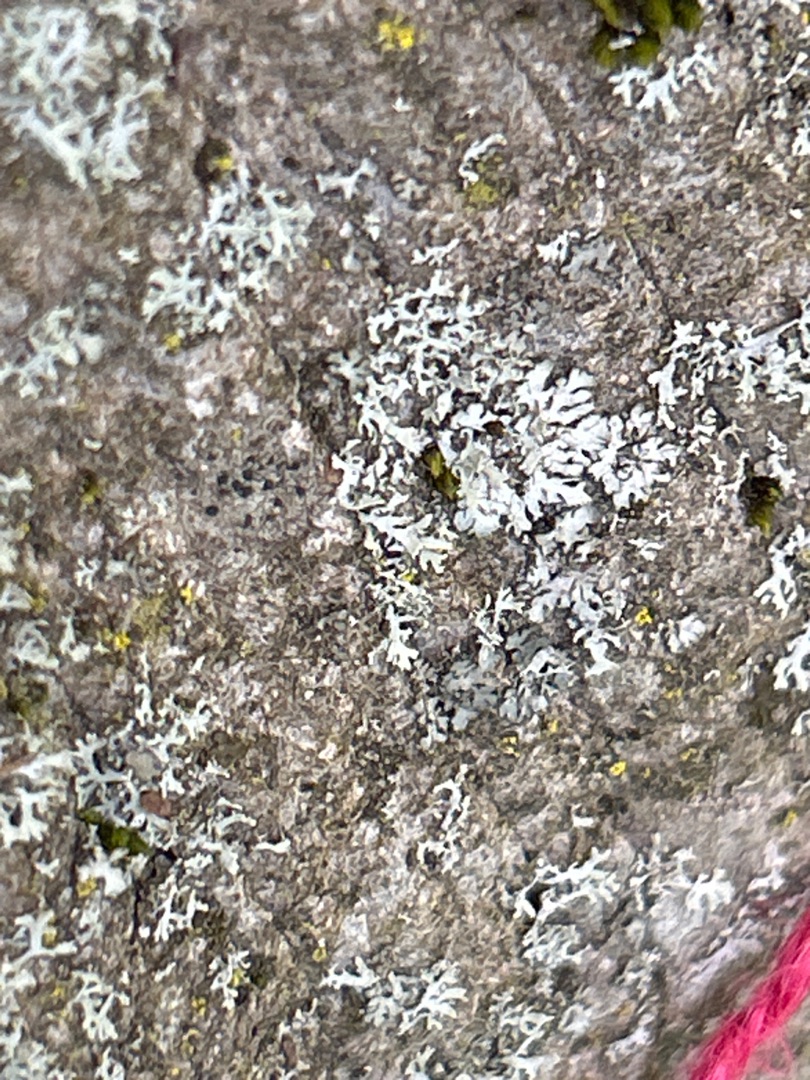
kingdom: Fungi
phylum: Ascomycota
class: Lecanoromycetes
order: Caliciales
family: Physciaceae
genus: Physcia
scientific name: Physcia tenella
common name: Spæd rosetlav
